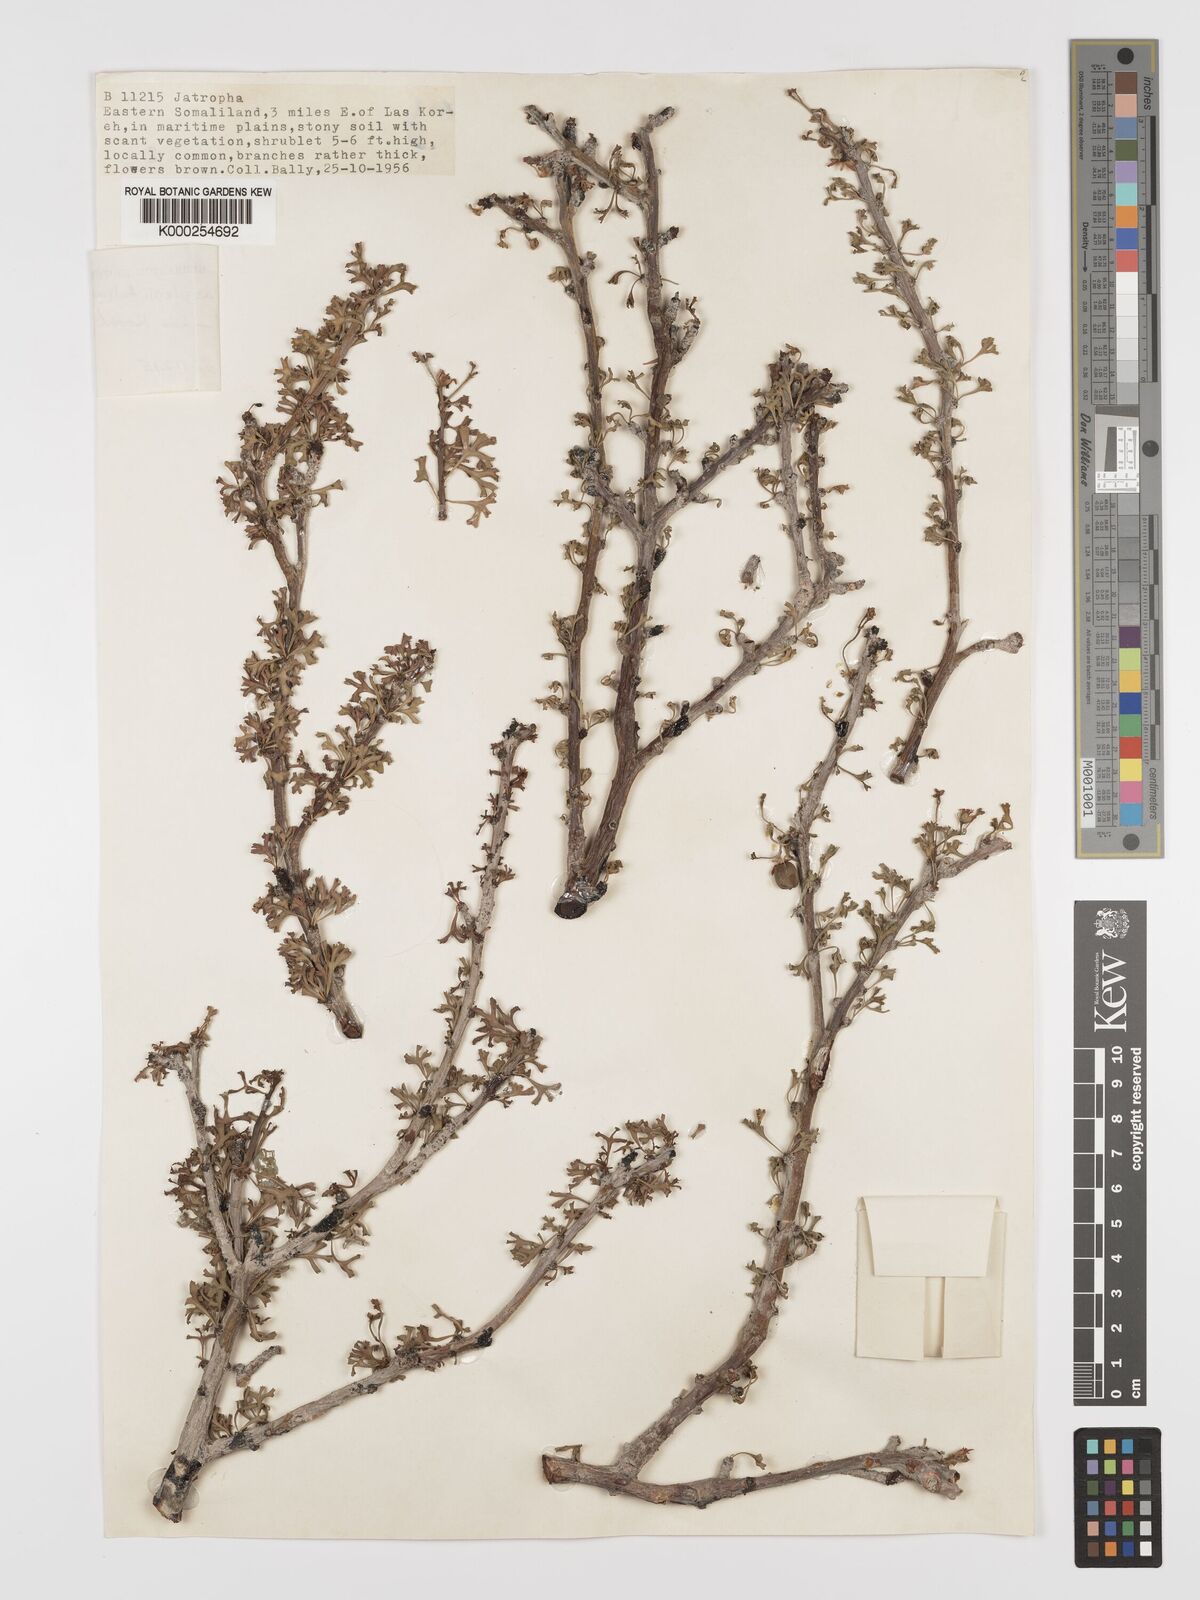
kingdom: Plantae
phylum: Tracheophyta
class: Magnoliopsida
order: Malpighiales
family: Euphorbiaceae
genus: Jatropha
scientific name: Jatropha aspleniifolia
